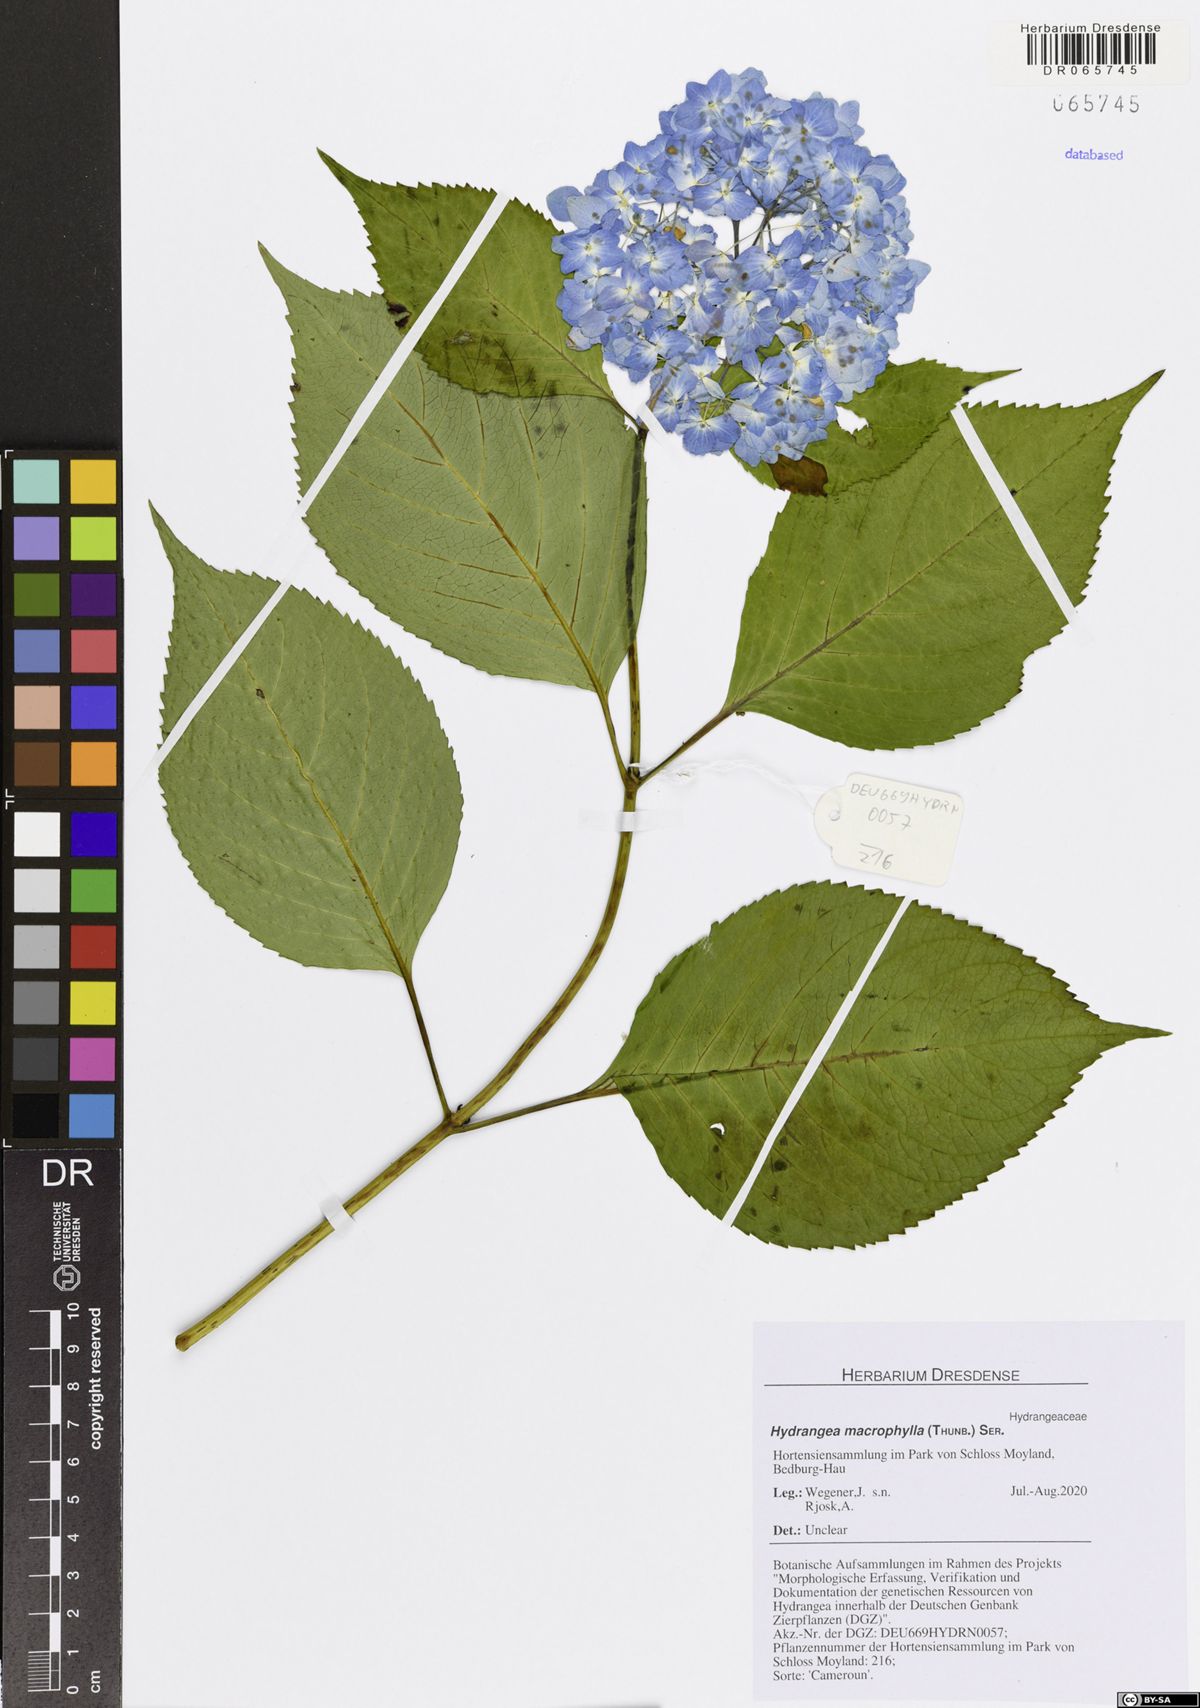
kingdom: Plantae
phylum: Tracheophyta
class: Magnoliopsida
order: Cornales
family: Hydrangeaceae
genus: Hydrangea
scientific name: Hydrangea macrophylla
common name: Hydrangea
